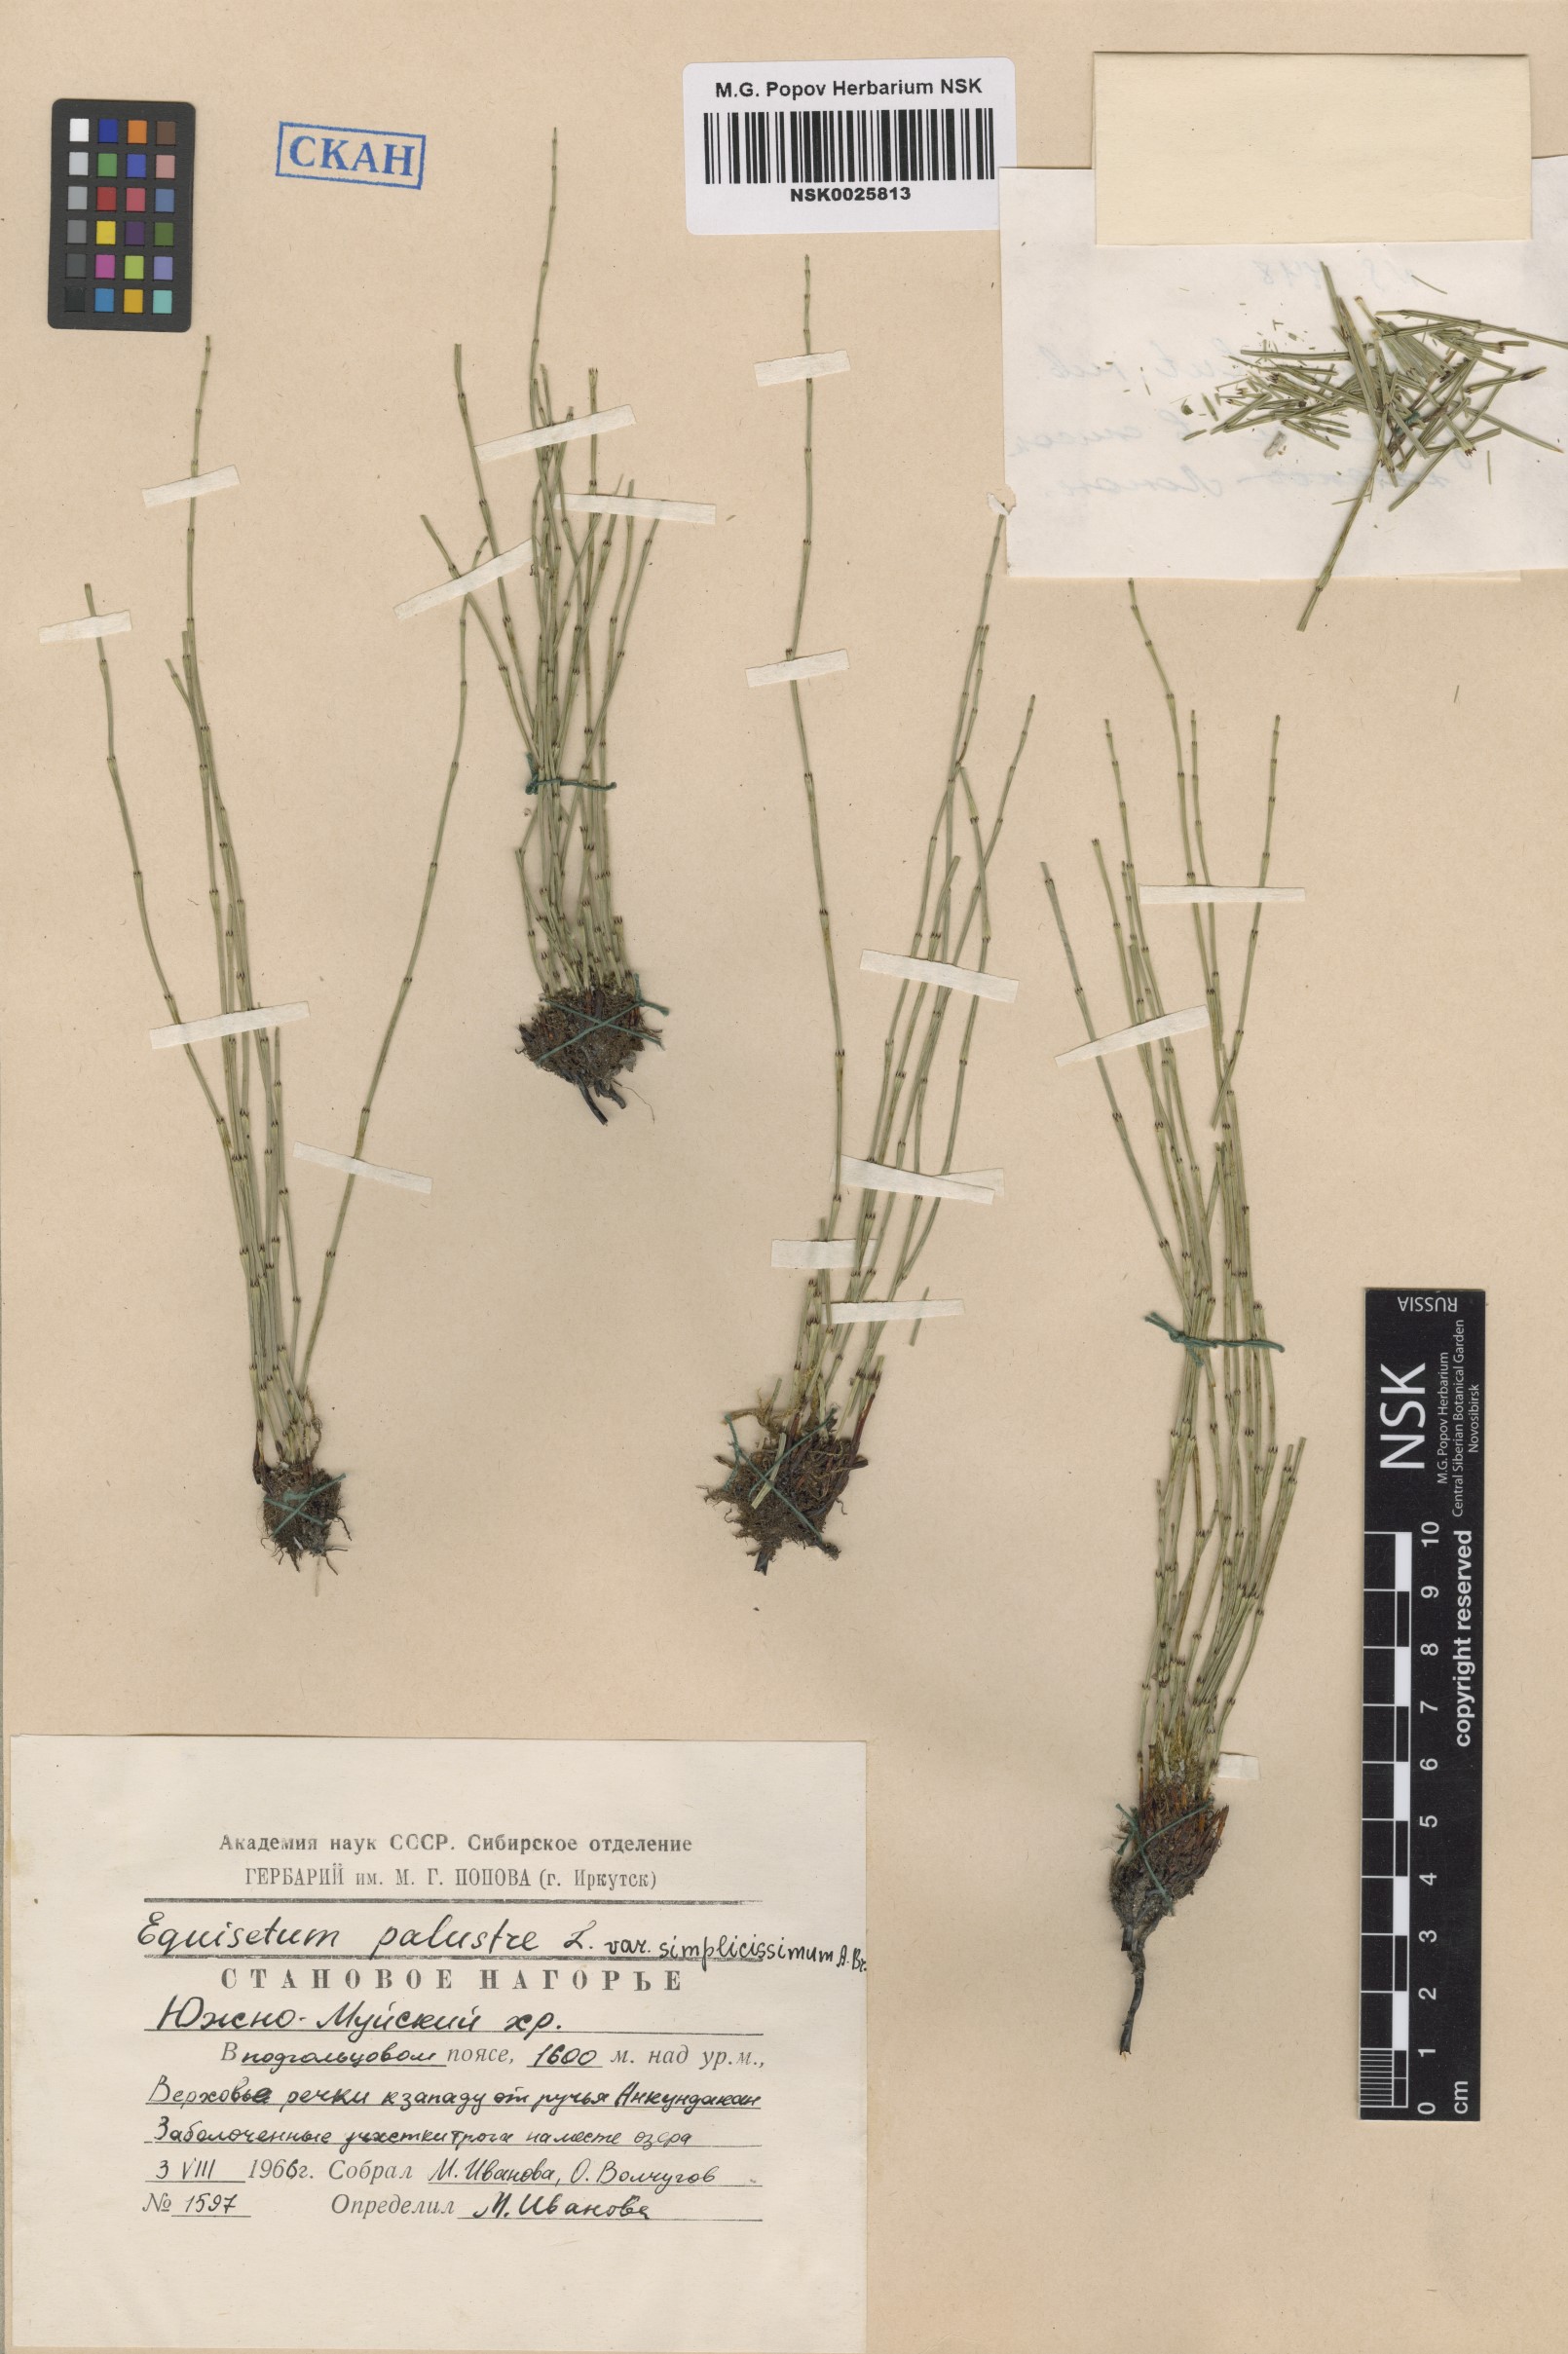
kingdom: Plantae
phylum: Tracheophyta
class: Polypodiopsida
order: Equisetales
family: Equisetaceae
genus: Equisetum
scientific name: Equisetum palustre
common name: Marsh horsetail
